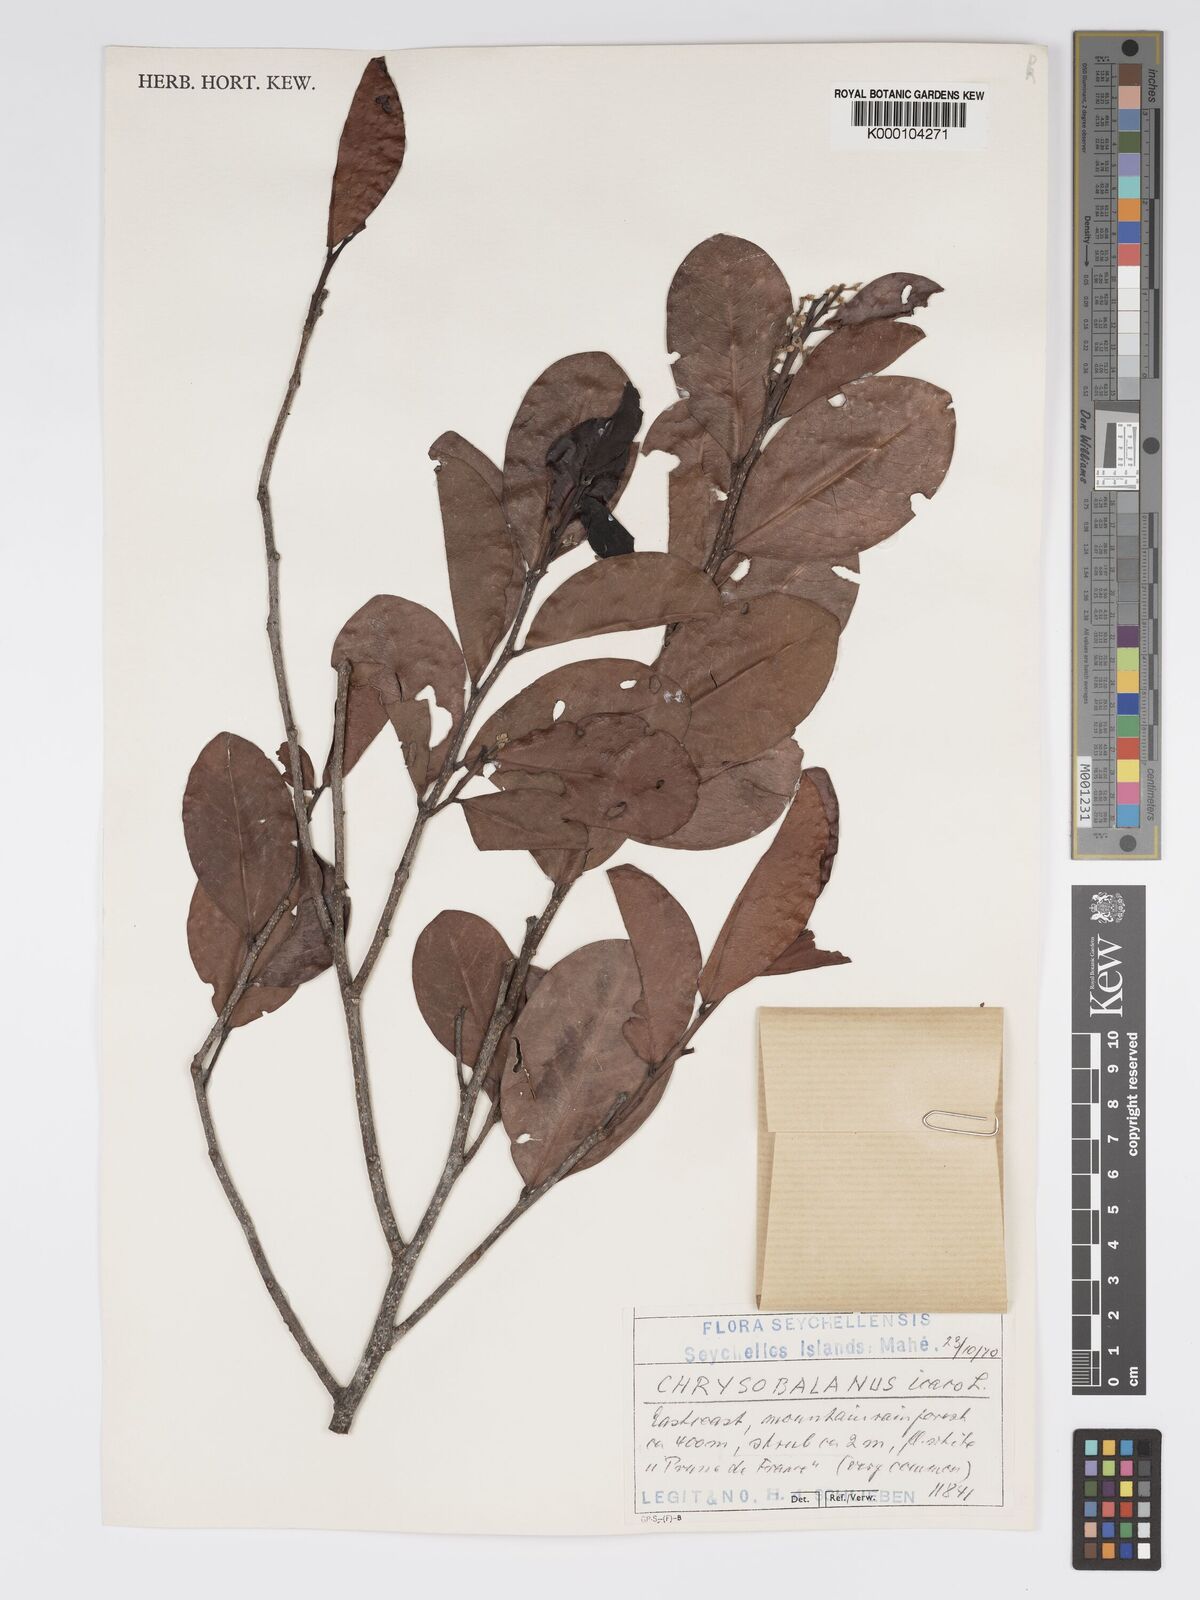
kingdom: Plantae
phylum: Tracheophyta
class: Magnoliopsida
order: Malpighiales
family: Chrysobalanaceae
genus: Chrysobalanus
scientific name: Chrysobalanus icaco
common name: Coco plum
